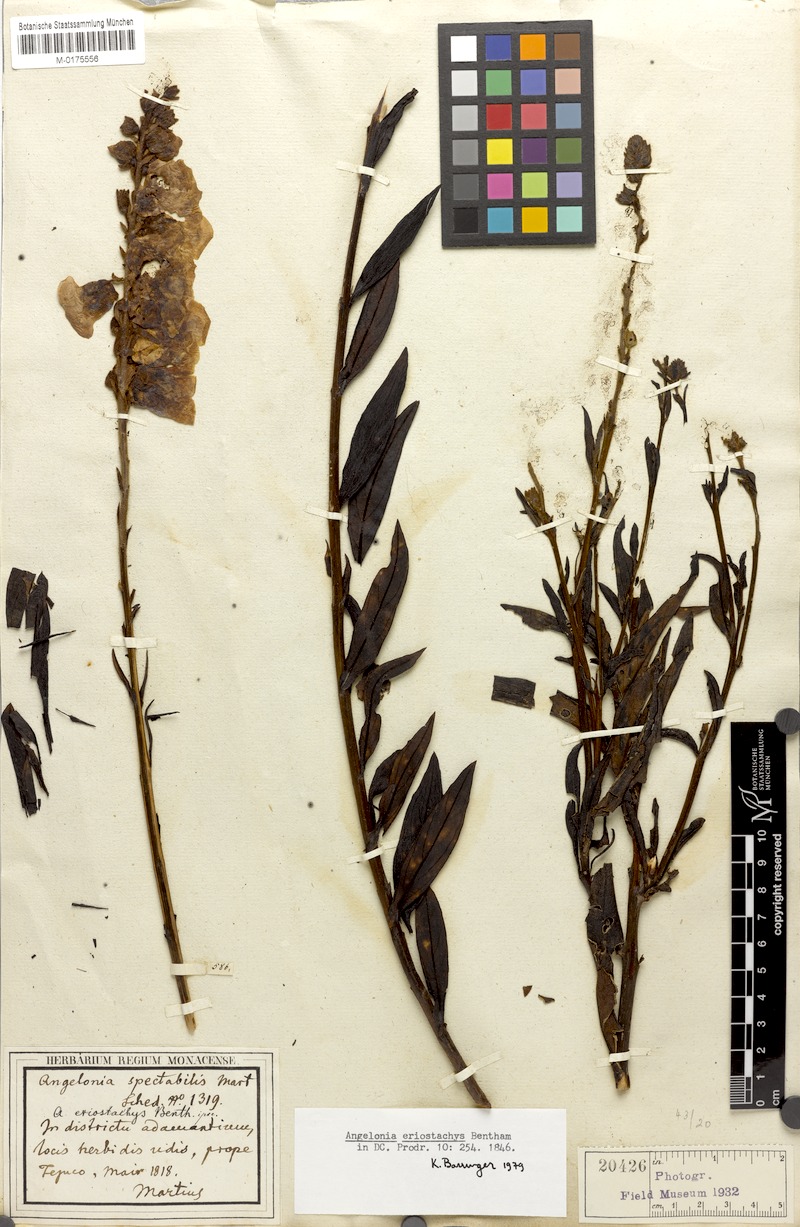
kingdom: Plantae
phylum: Tracheophyta
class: Magnoliopsida
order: Lamiales
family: Plantaginaceae
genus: Angelonia
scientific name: Angelonia eriostachys
